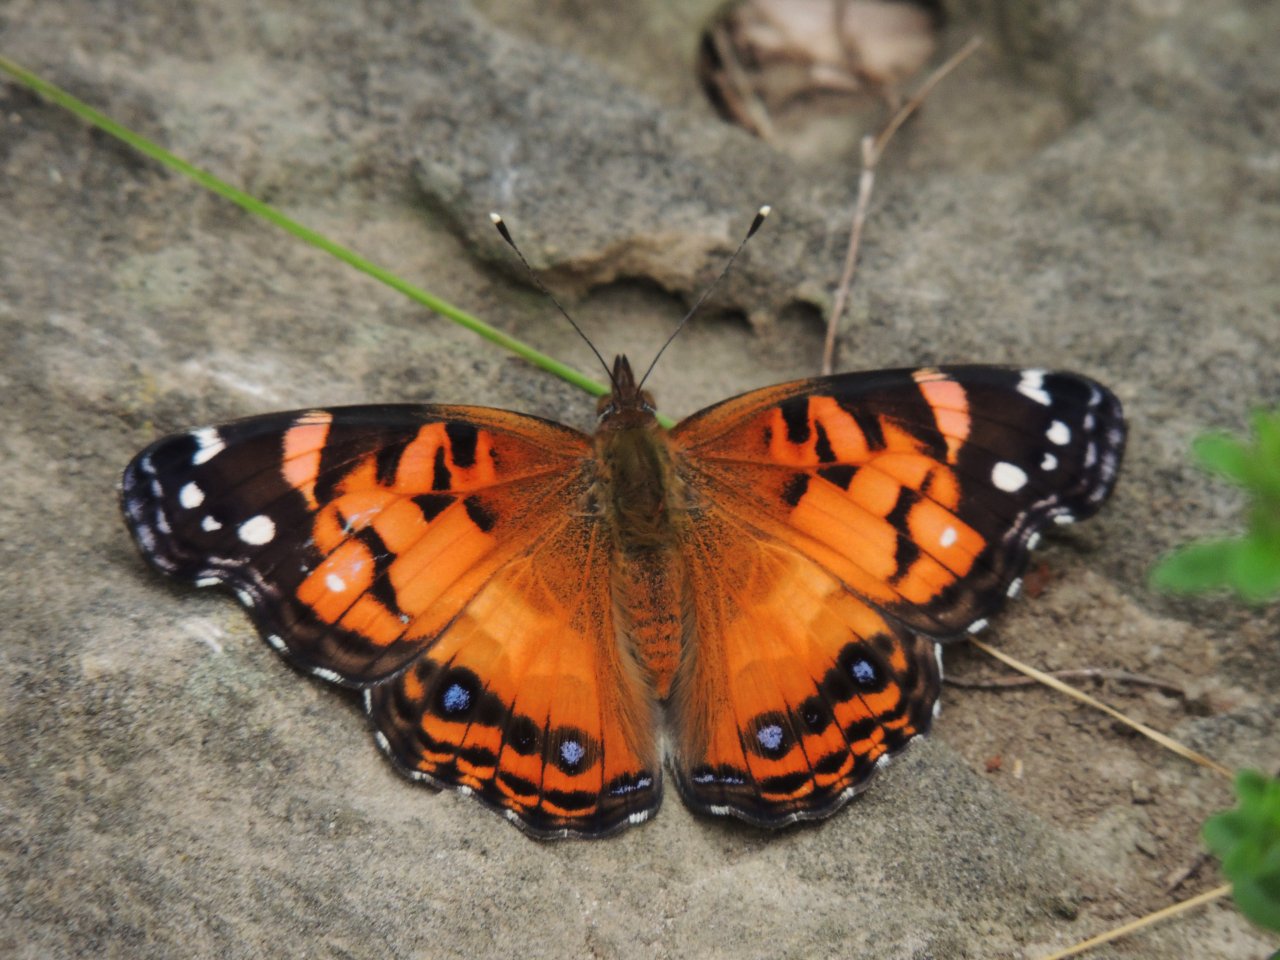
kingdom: Animalia
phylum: Arthropoda
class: Insecta
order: Lepidoptera
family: Nymphalidae
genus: Vanessa
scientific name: Vanessa virginiensis
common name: American Lady
